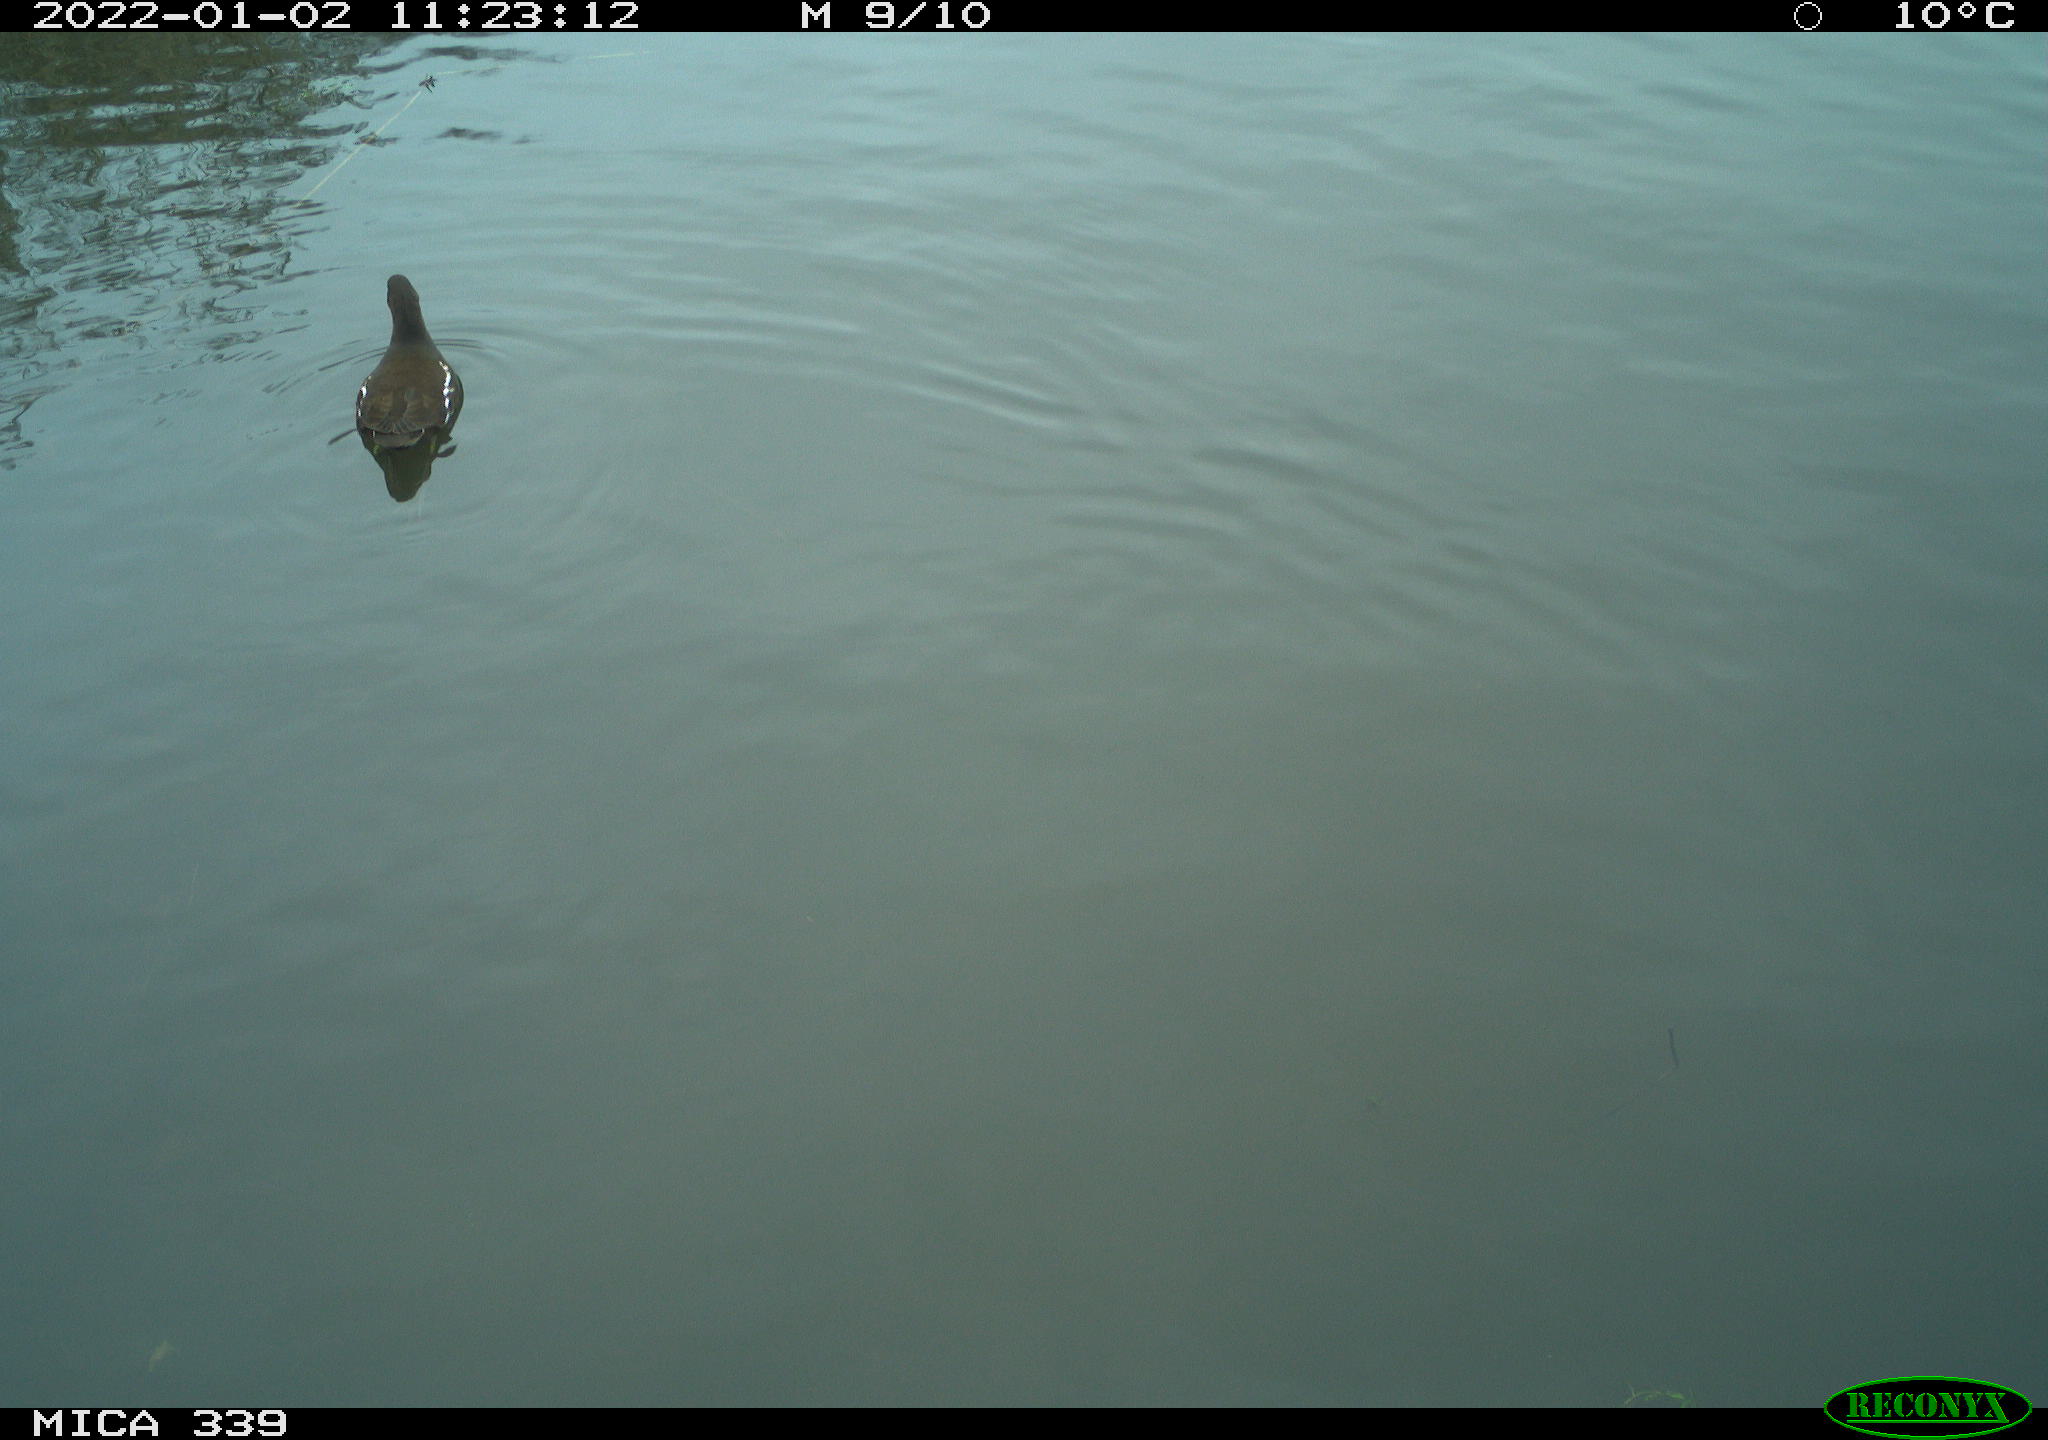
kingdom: Animalia
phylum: Chordata
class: Aves
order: Gruiformes
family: Rallidae
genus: Gallinula
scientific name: Gallinula chloropus
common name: Common moorhen
